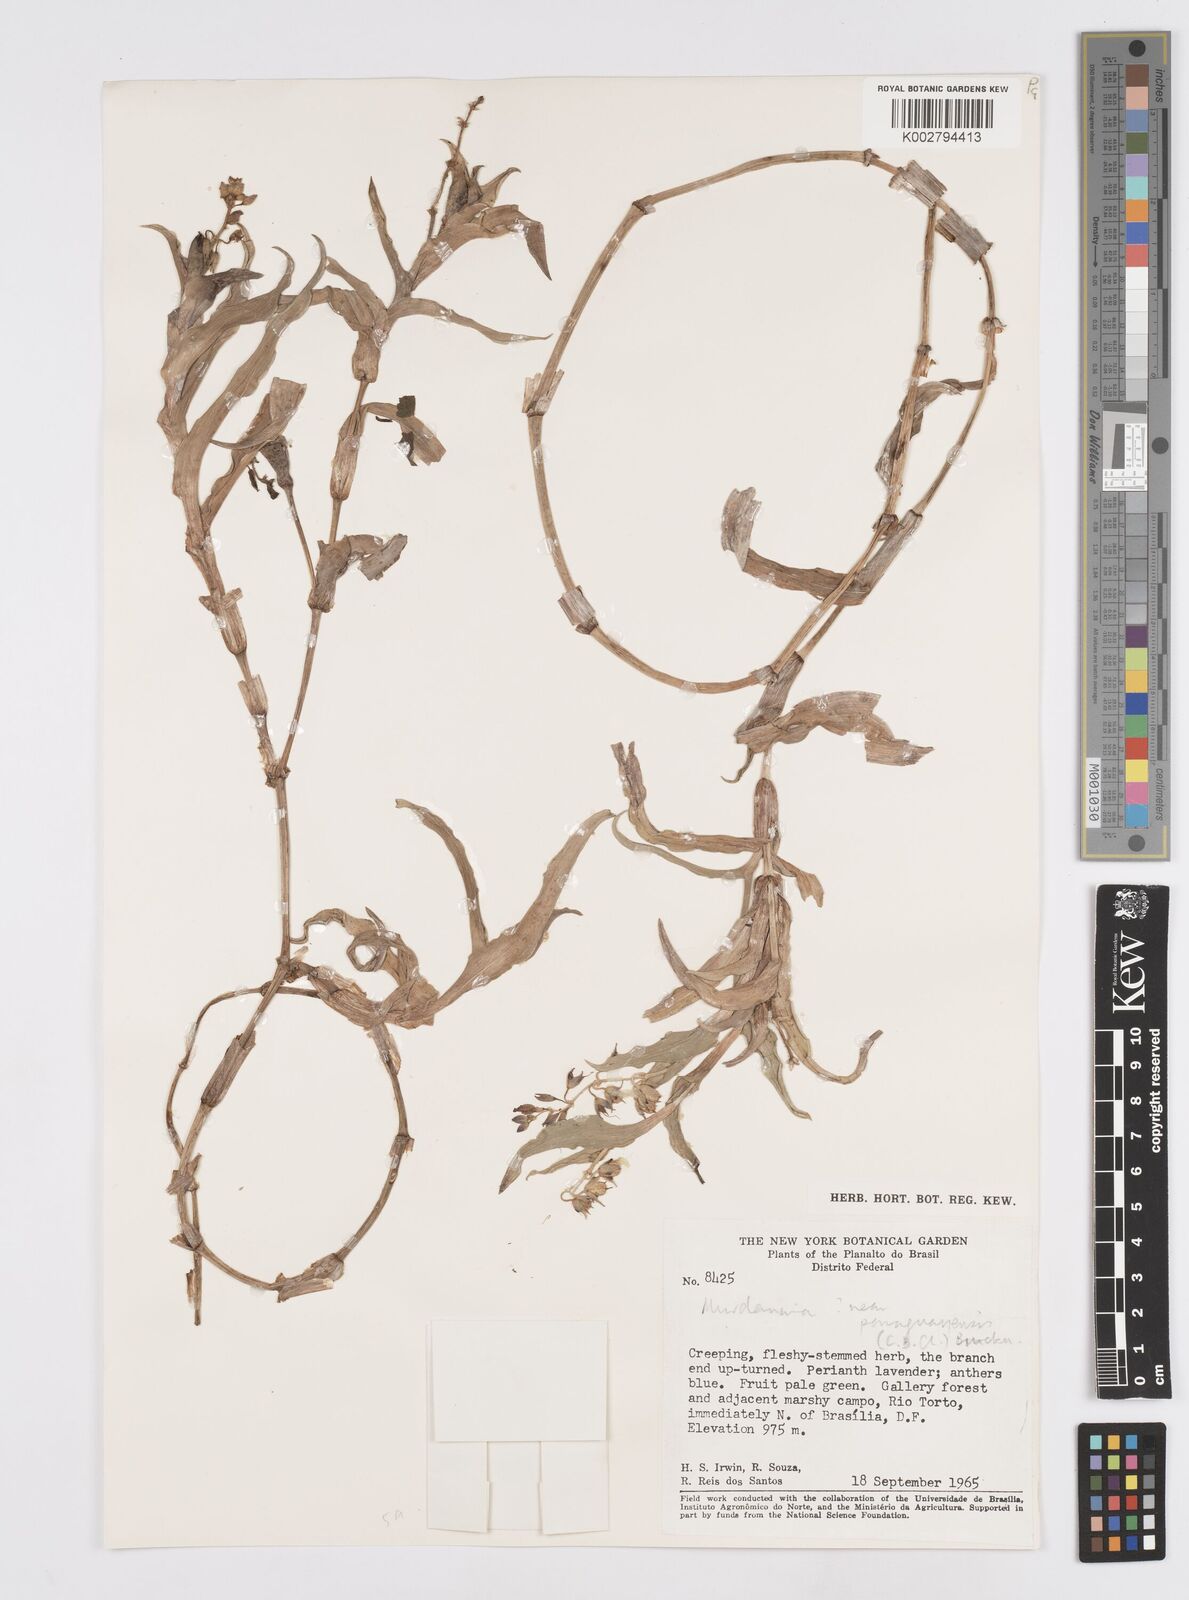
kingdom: Plantae
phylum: Tracheophyta
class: Liliopsida
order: Commelinales
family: Commelinaceae
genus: Murdannia
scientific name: Murdannia paraguayensis
